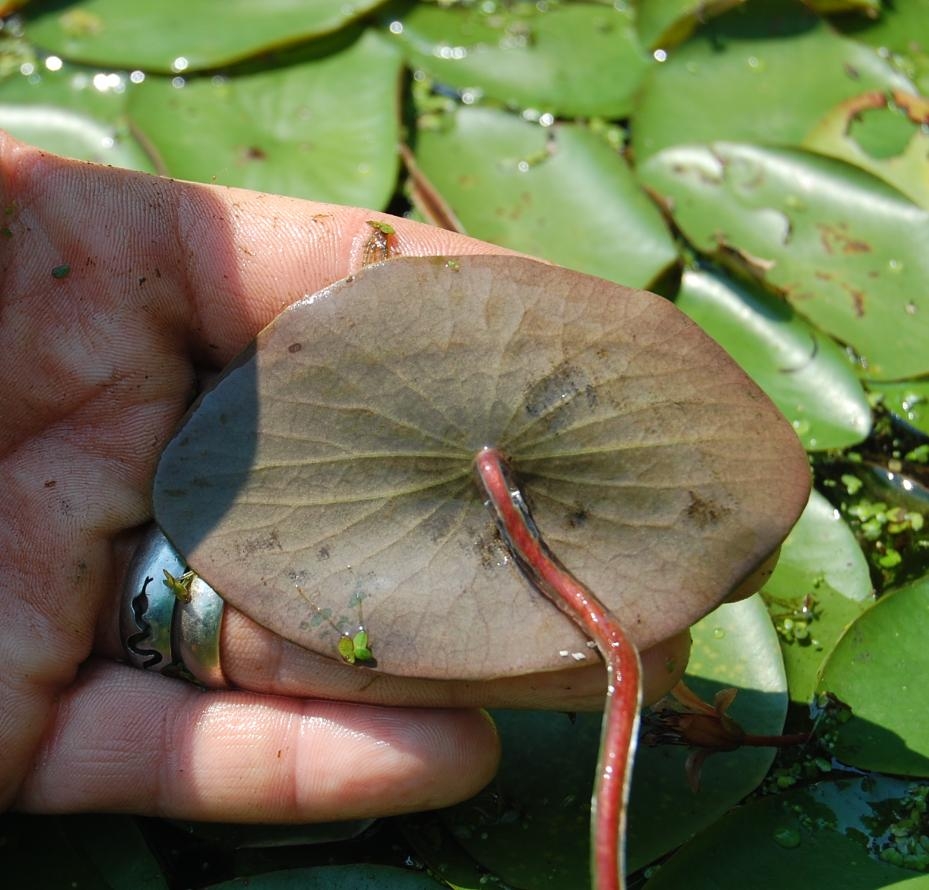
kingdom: Plantae
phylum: Tracheophyta
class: Magnoliopsida
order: Nymphaeales
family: Cabombaceae
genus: Brasenia
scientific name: Brasenia schreberi
